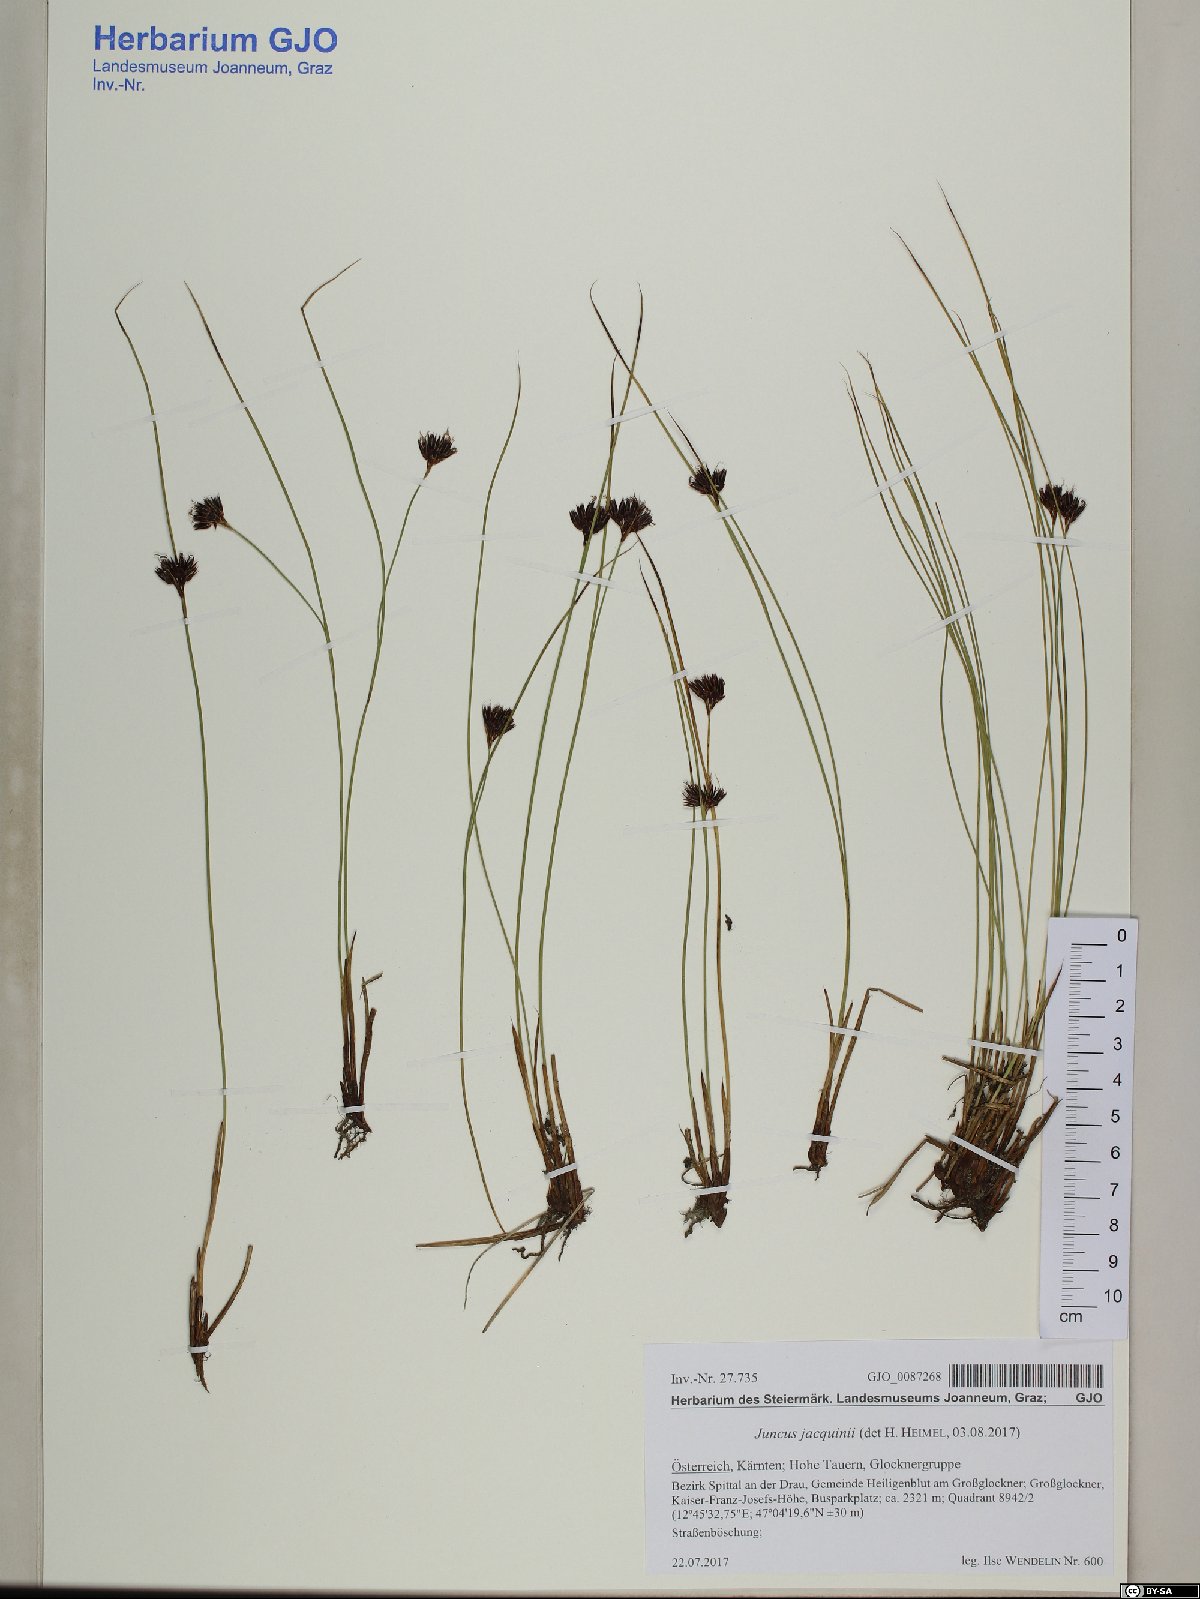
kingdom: Plantae
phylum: Tracheophyta
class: Liliopsida
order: Poales
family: Juncaceae
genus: Juncus
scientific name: Juncus jacquinii
